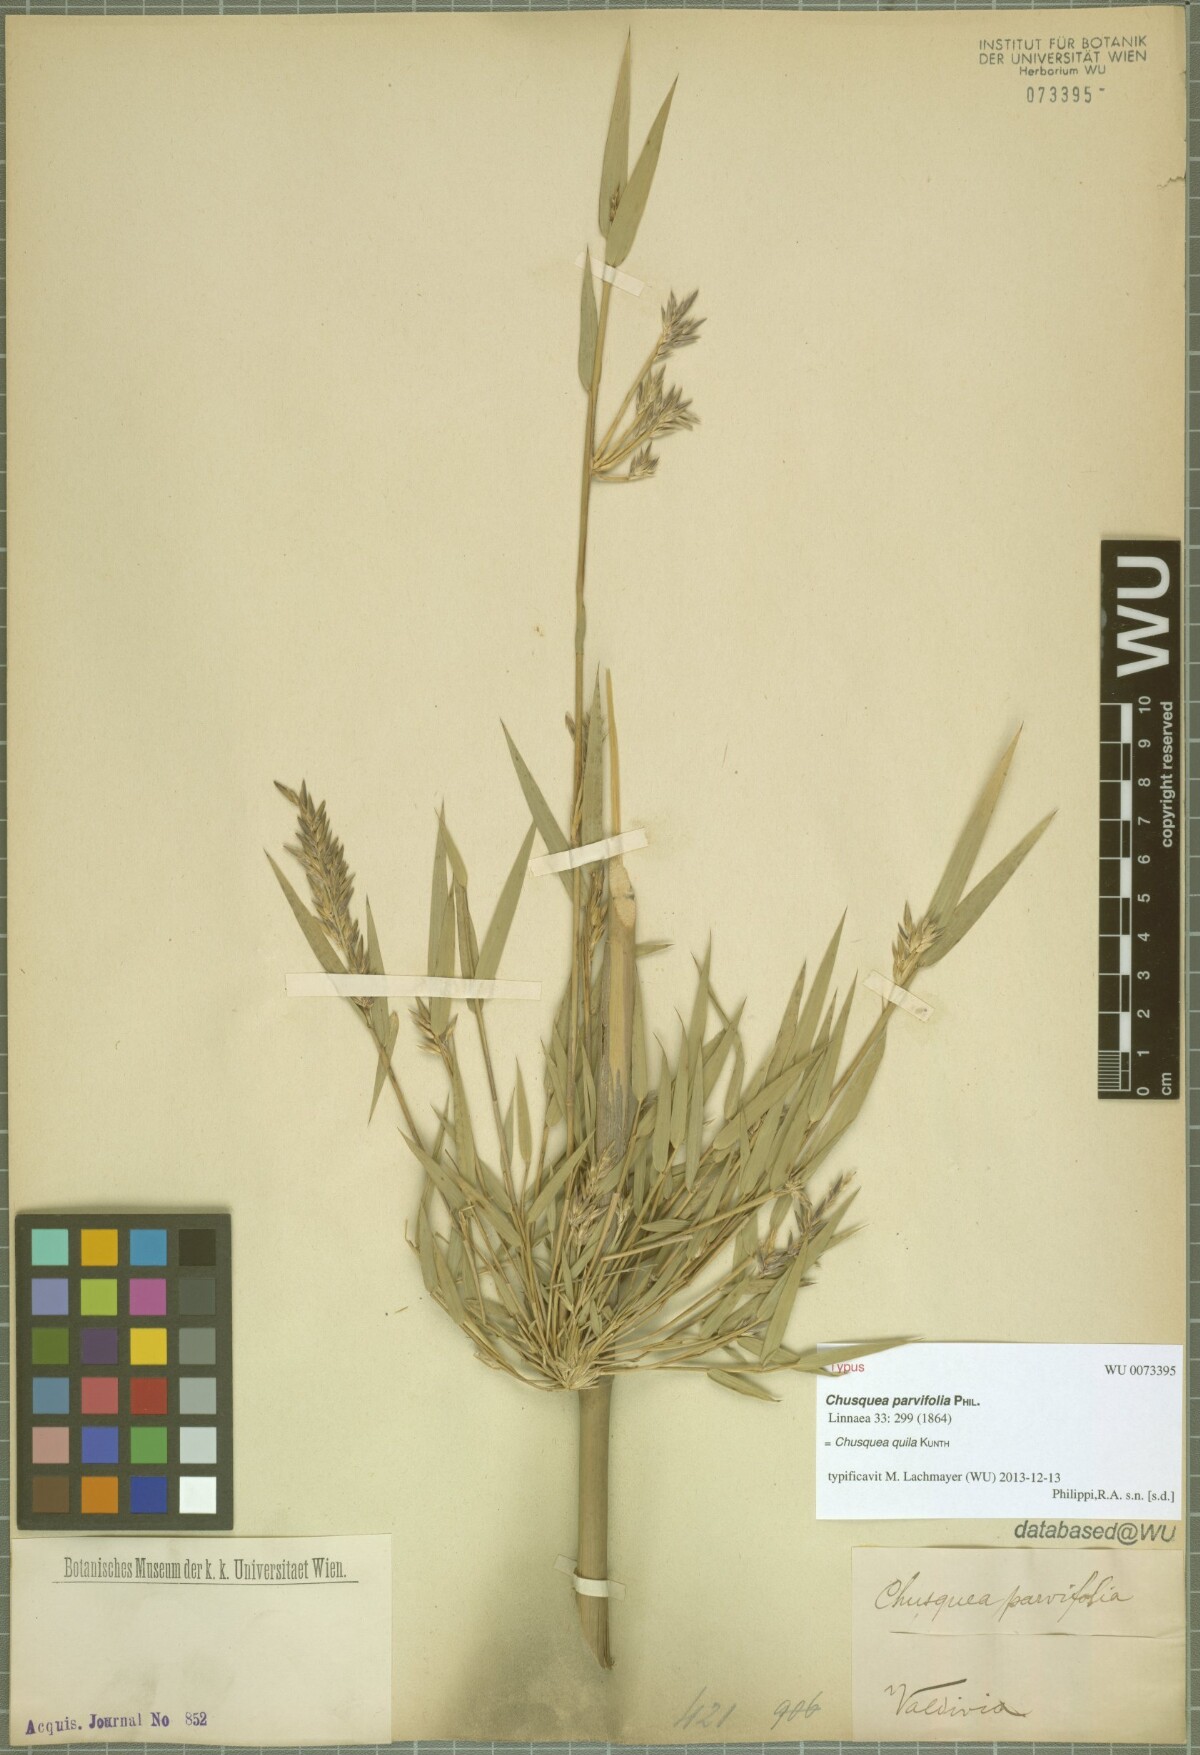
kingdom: Plantae
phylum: Tracheophyta
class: Liliopsida
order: Poales
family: Poaceae
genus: Chusquea
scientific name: Chusquea quila
